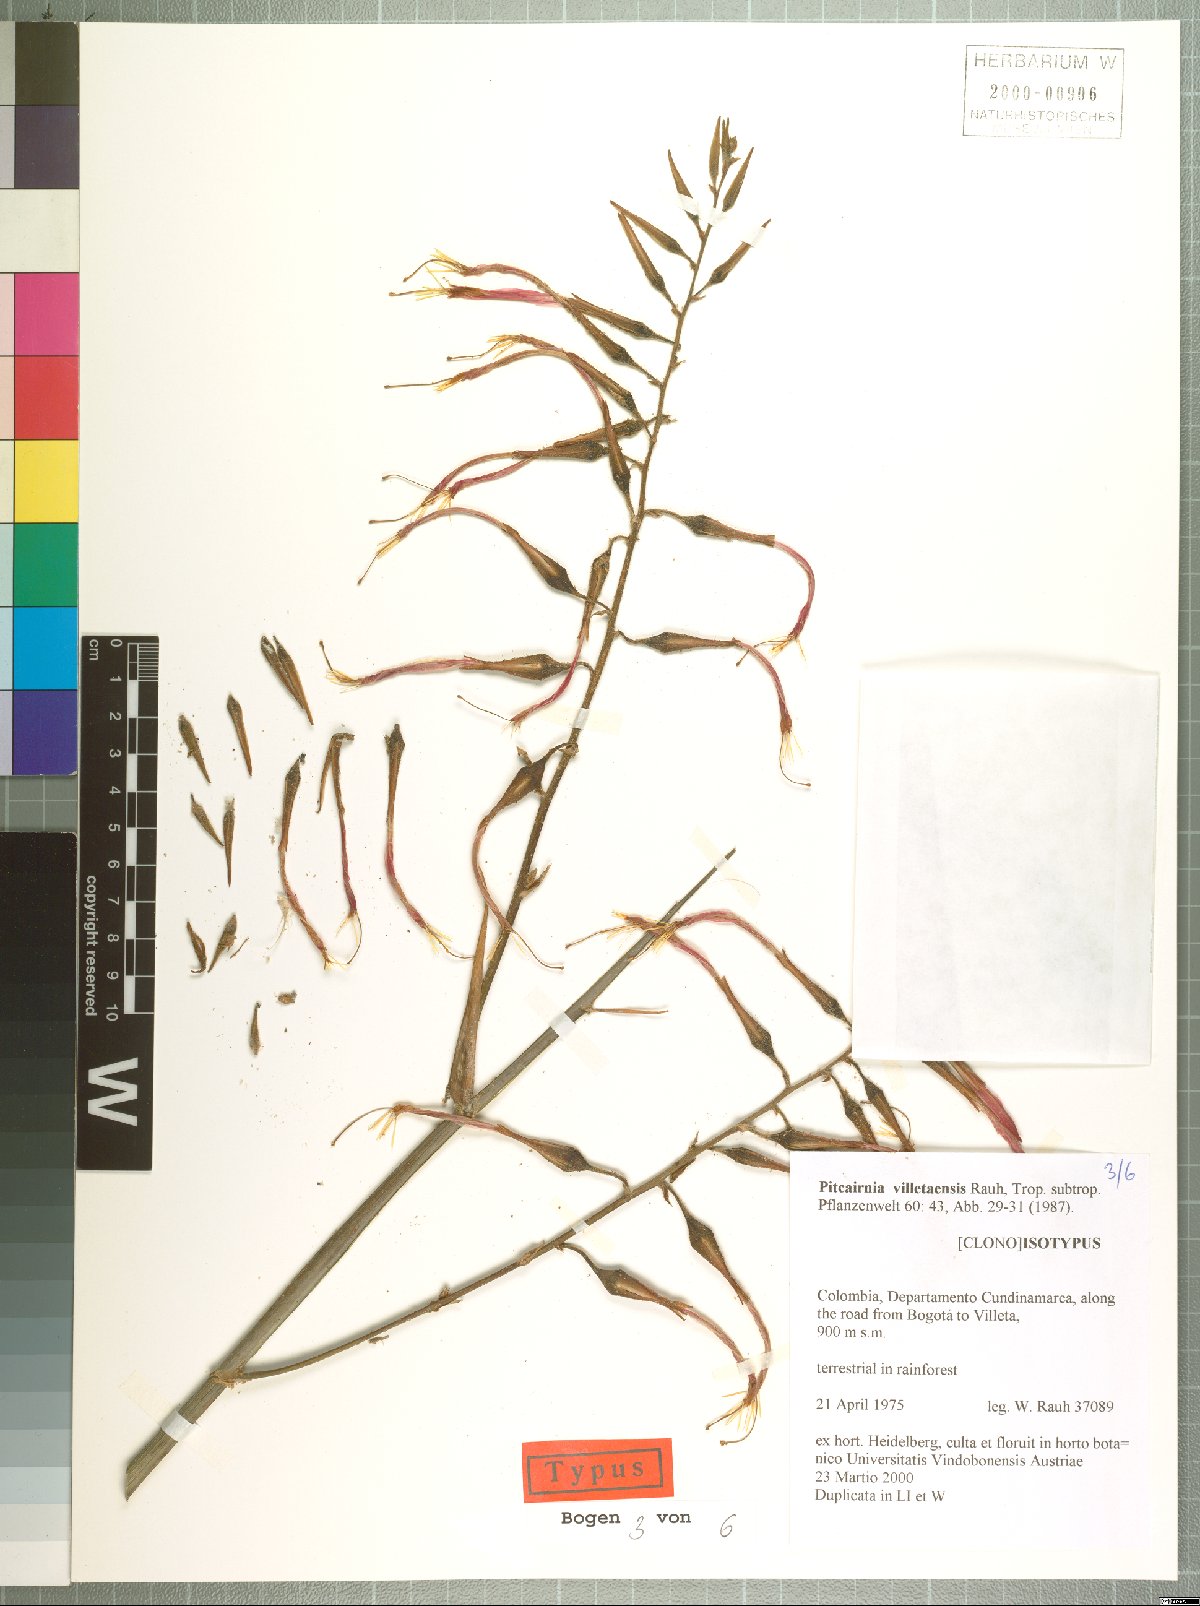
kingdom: Plantae
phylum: Tracheophyta
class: Liliopsida
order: Poales
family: Bromeliaceae
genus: Pitcairnia
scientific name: Pitcairnia villetaensis
